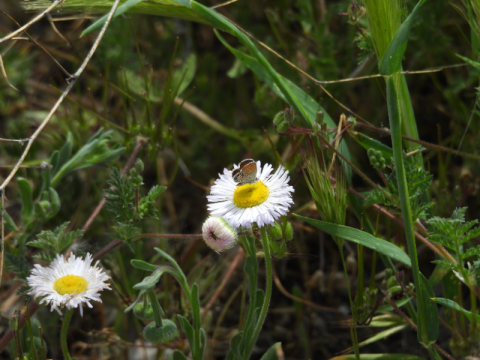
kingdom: Animalia
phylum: Arthropoda
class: Insecta
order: Lepidoptera
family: Lycaenidae
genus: Brephidium
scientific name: Brephidium exilis
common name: Western Pygmy-Blue
